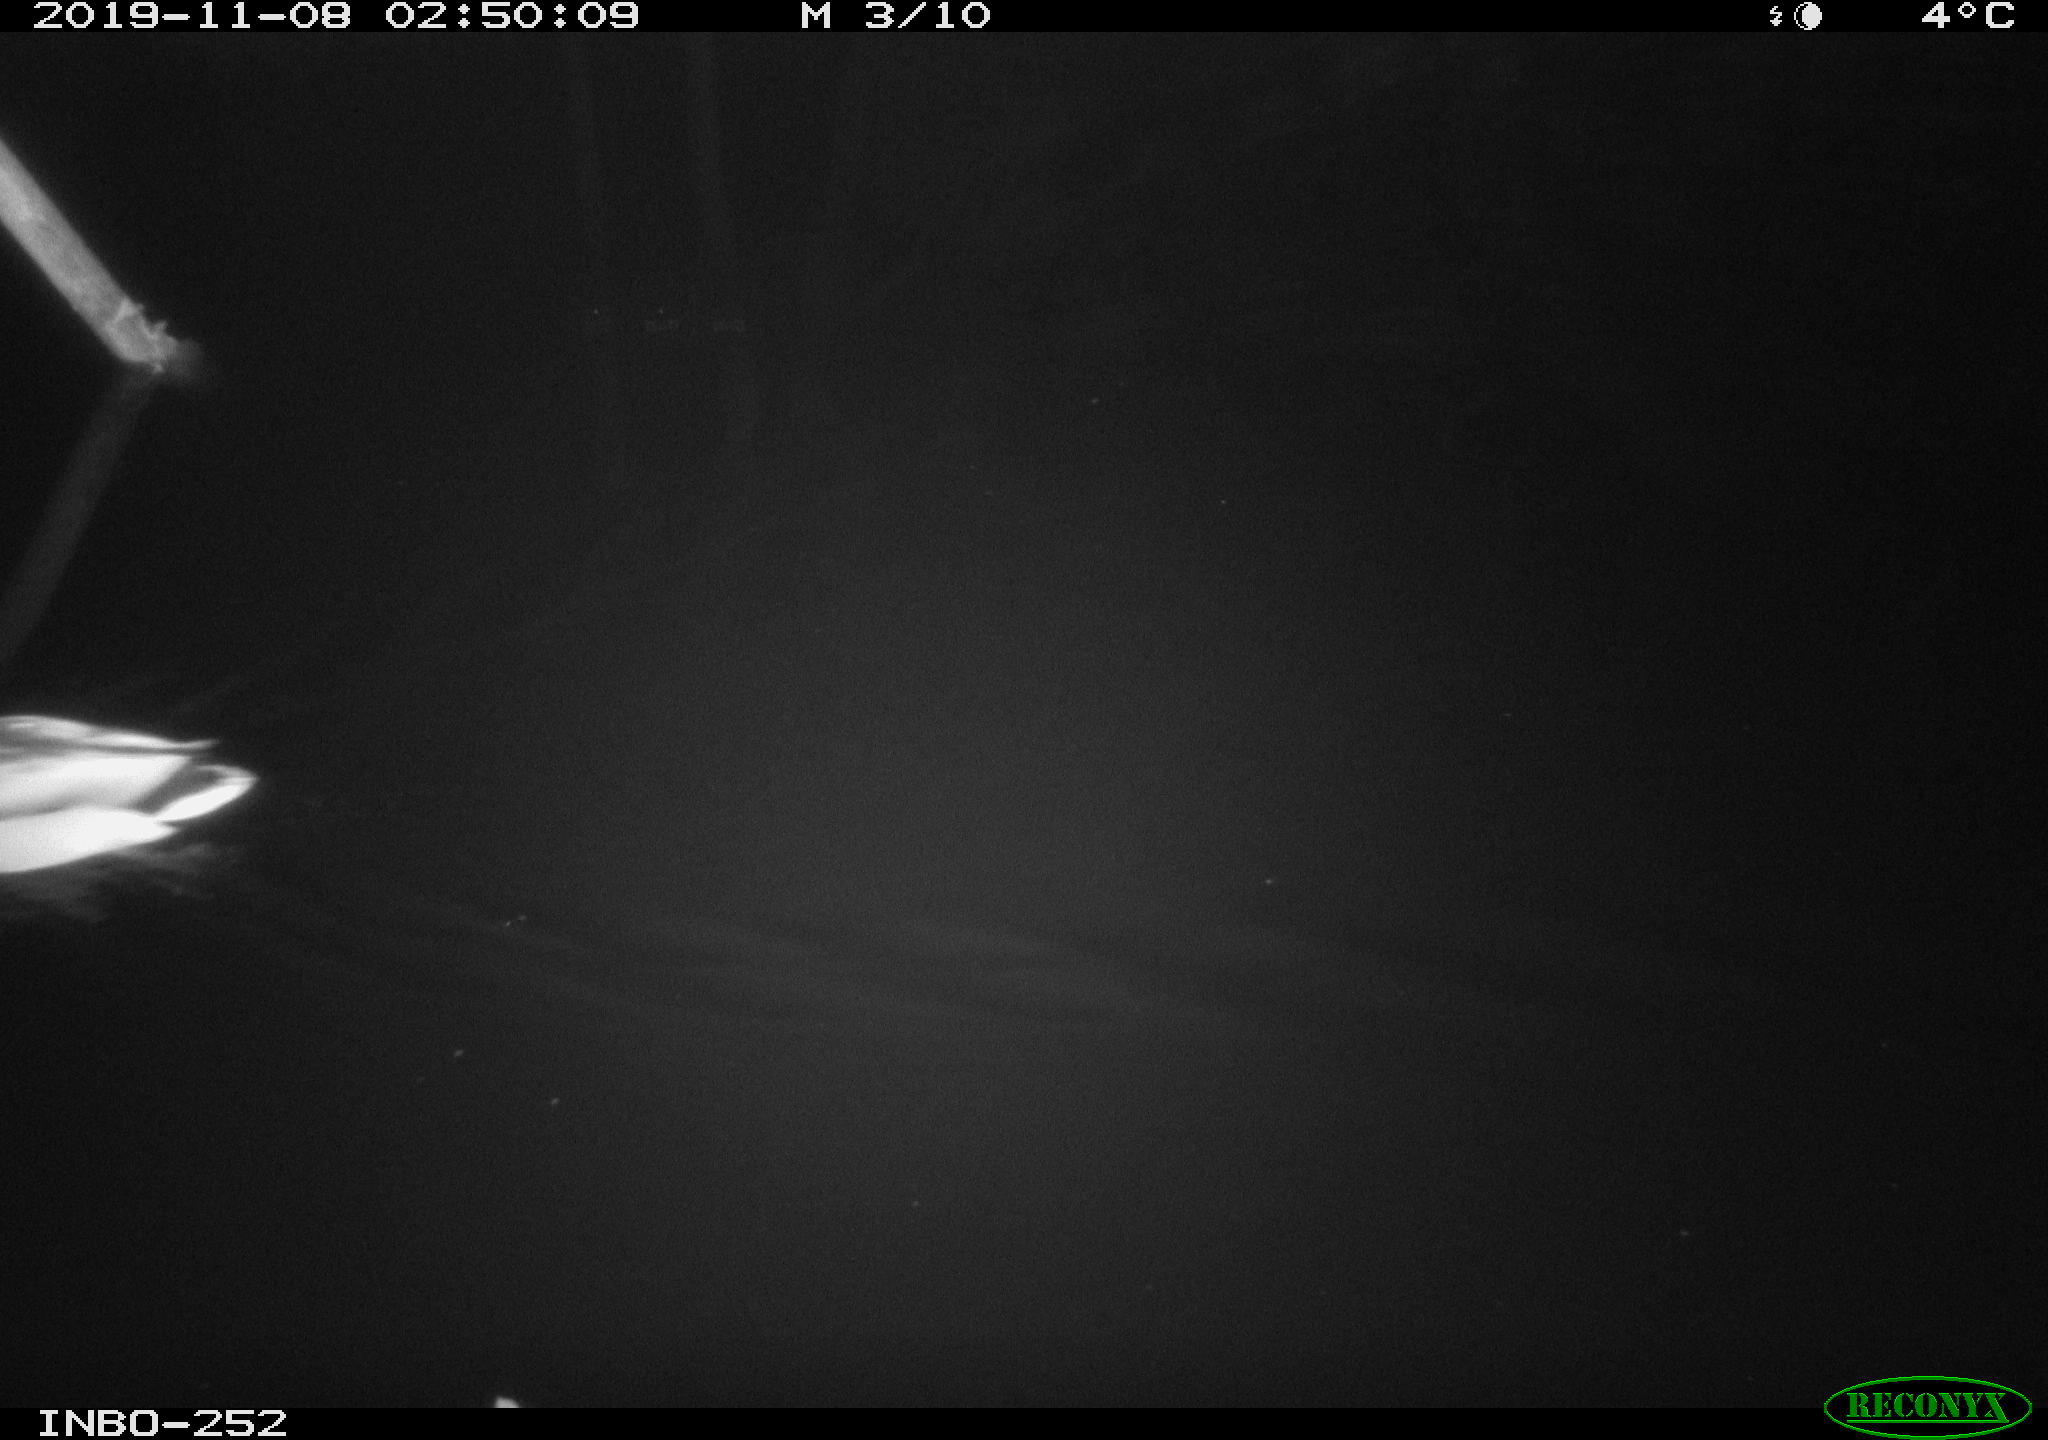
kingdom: Animalia
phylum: Chordata
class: Aves
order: Anseriformes
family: Anatidae
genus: Anas
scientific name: Anas platyrhynchos
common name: Mallard
